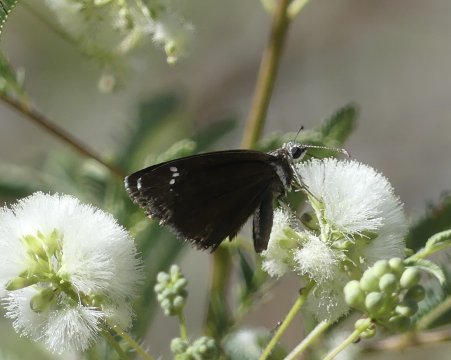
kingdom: Animalia
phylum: Arthropoda
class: Insecta
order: Lepidoptera
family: Hesperiidae
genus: Pholisora
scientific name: Pholisora catullus
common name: Common Sootywing
